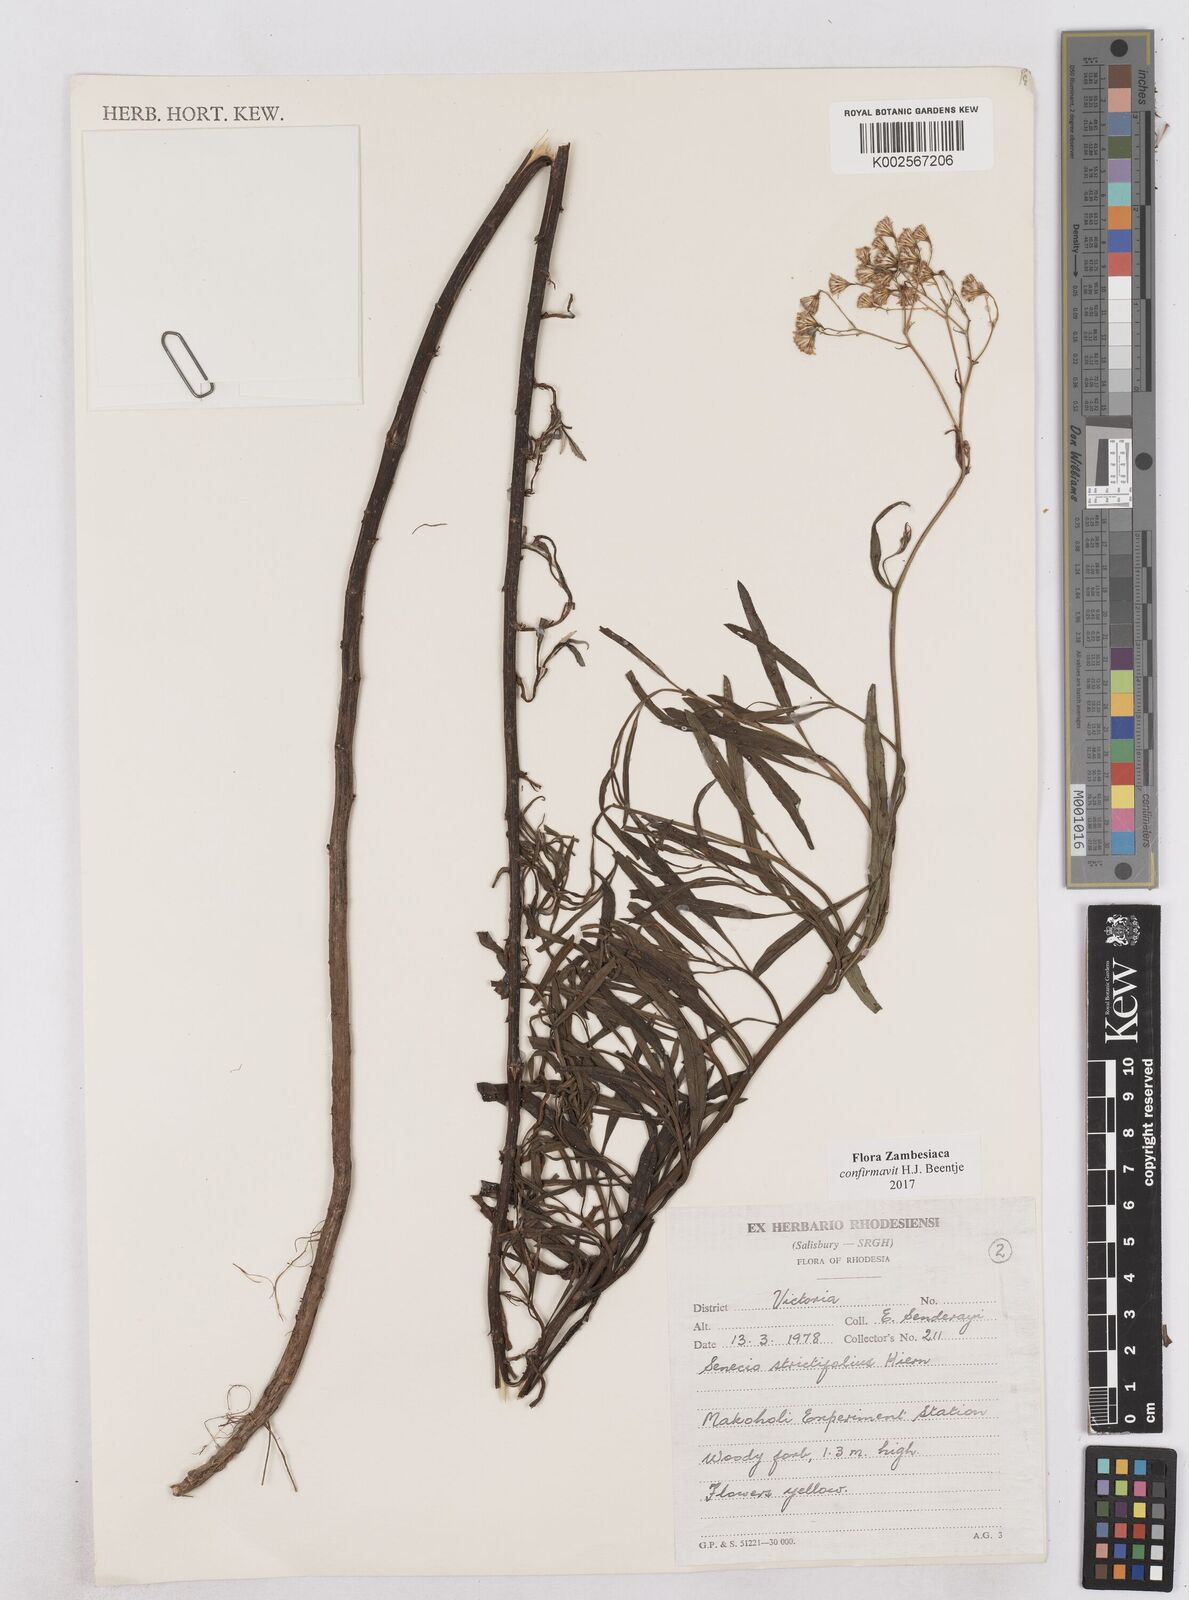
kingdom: Plantae
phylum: Tracheophyta
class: Magnoliopsida
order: Asterales
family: Asteraceae
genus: Senecio
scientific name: Senecio strictifolius
